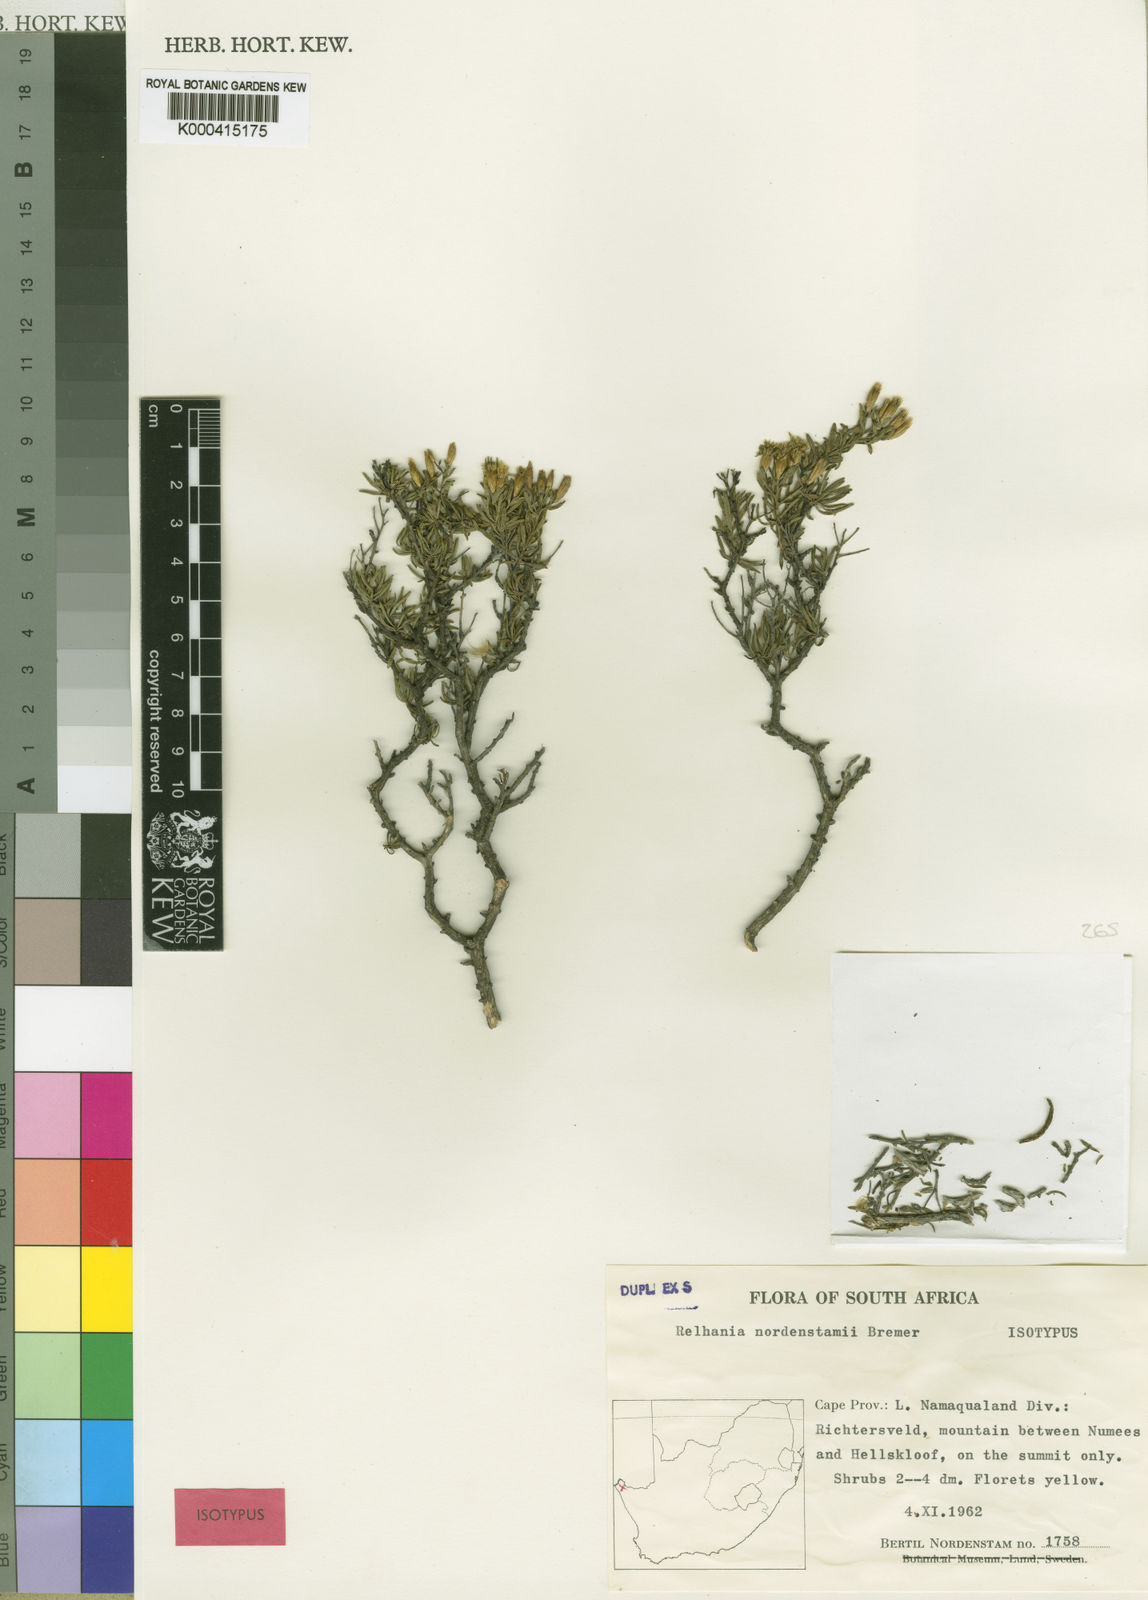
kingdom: Plantae
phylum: Tracheophyta
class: Magnoliopsida
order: Asterales
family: Asteraceae
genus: Oedera
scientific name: Oedera nordenstamii
